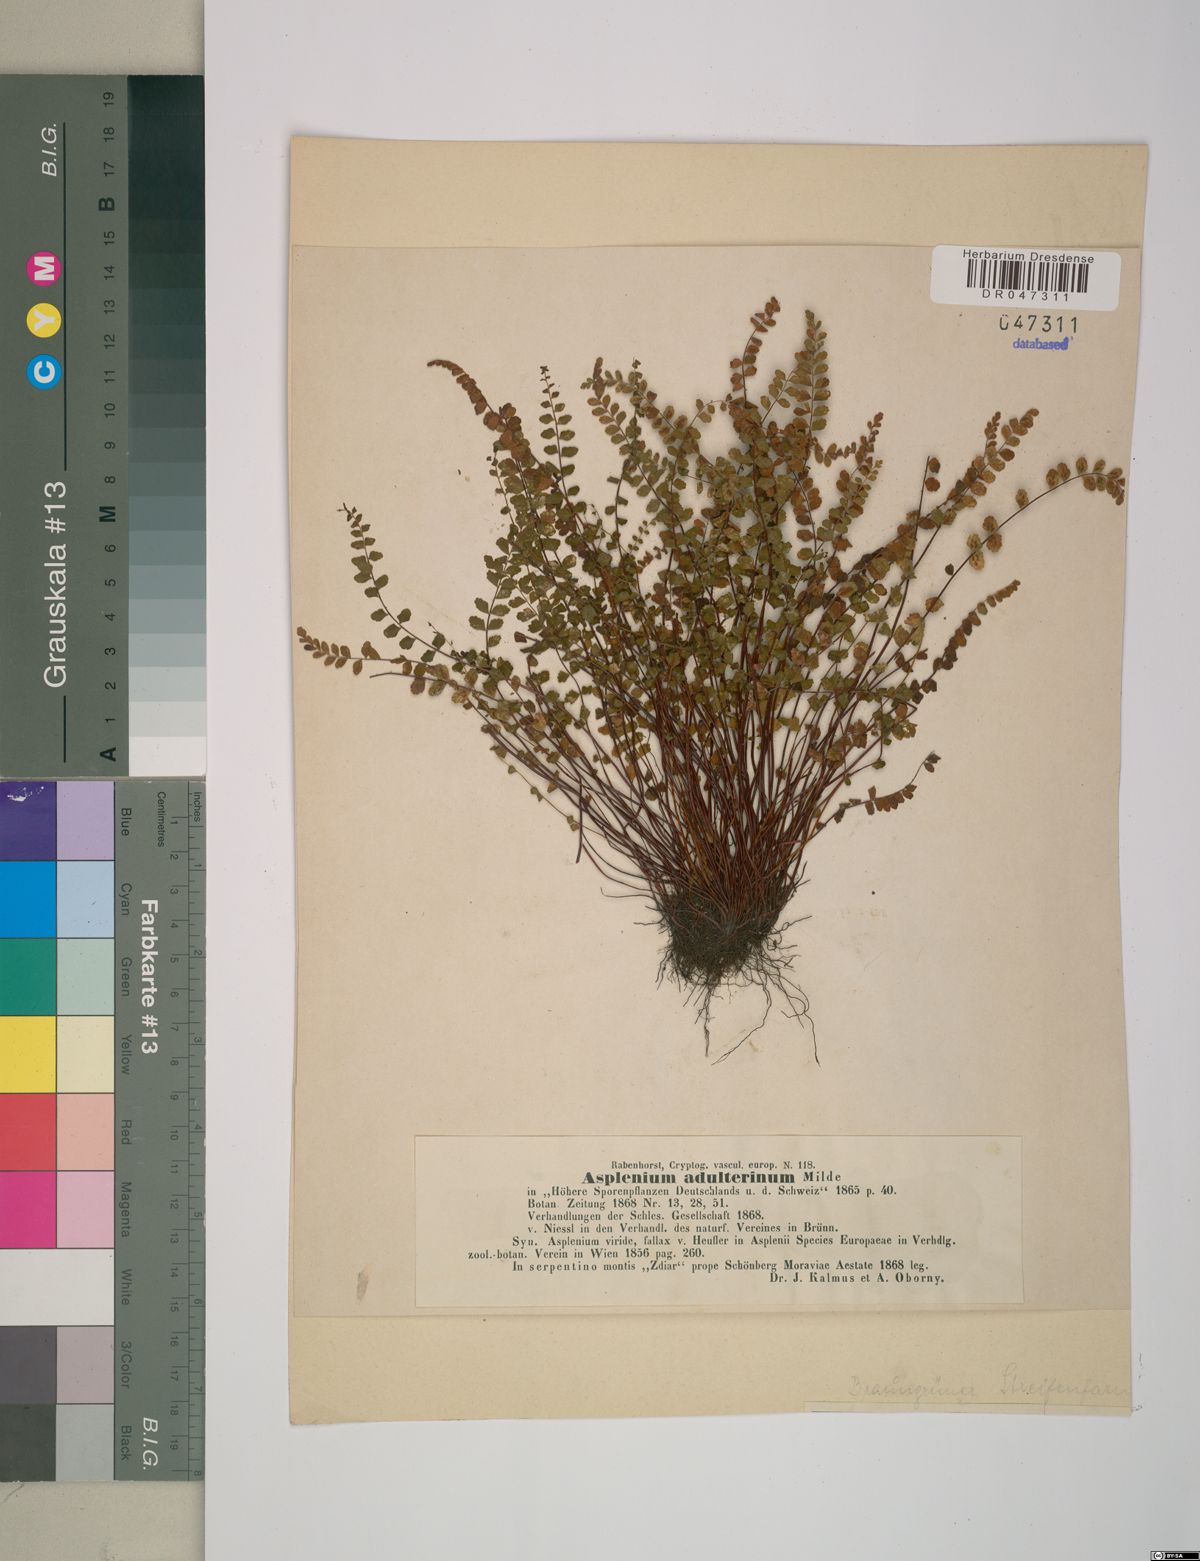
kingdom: Plantae
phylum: Tracheophyta
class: Polypodiopsida
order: Polypodiales
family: Aspleniaceae
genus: Asplenium
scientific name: Asplenium adulterinum
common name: Adulterated spleenwort
